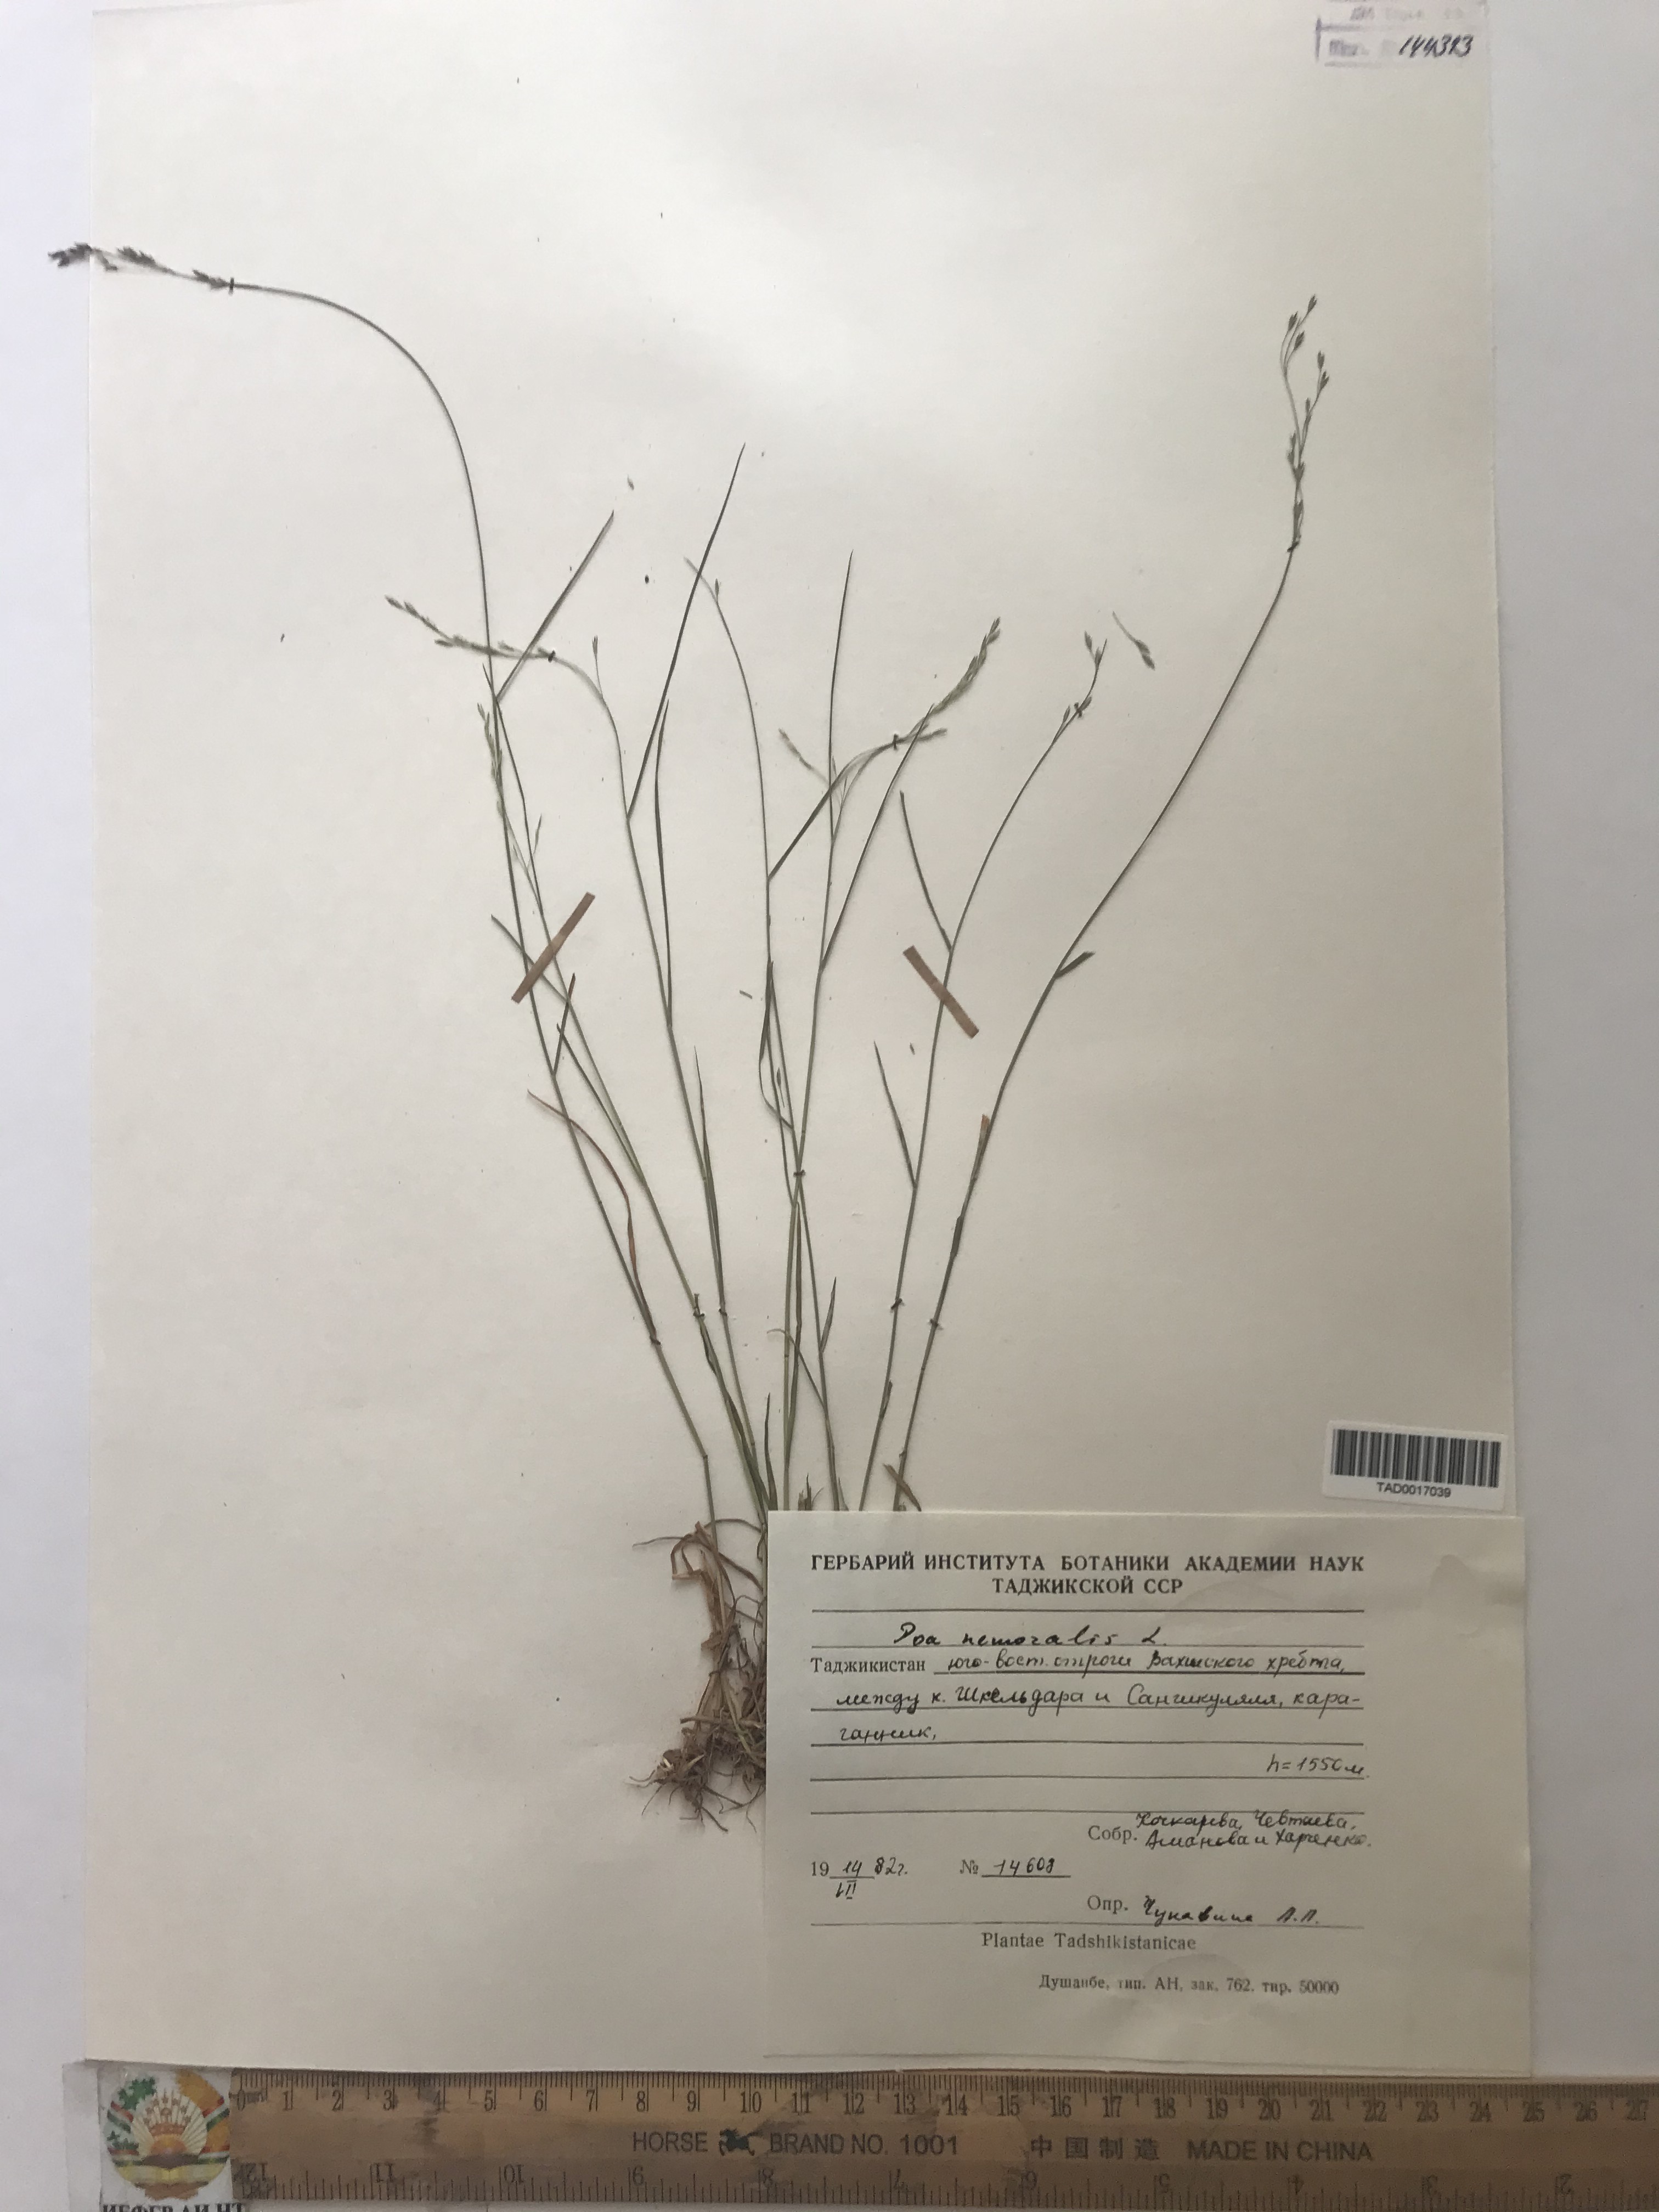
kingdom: Plantae
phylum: Tracheophyta
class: Liliopsida
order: Poales
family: Poaceae
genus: Poa
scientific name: Poa nemoralis
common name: Wood bluegrass
